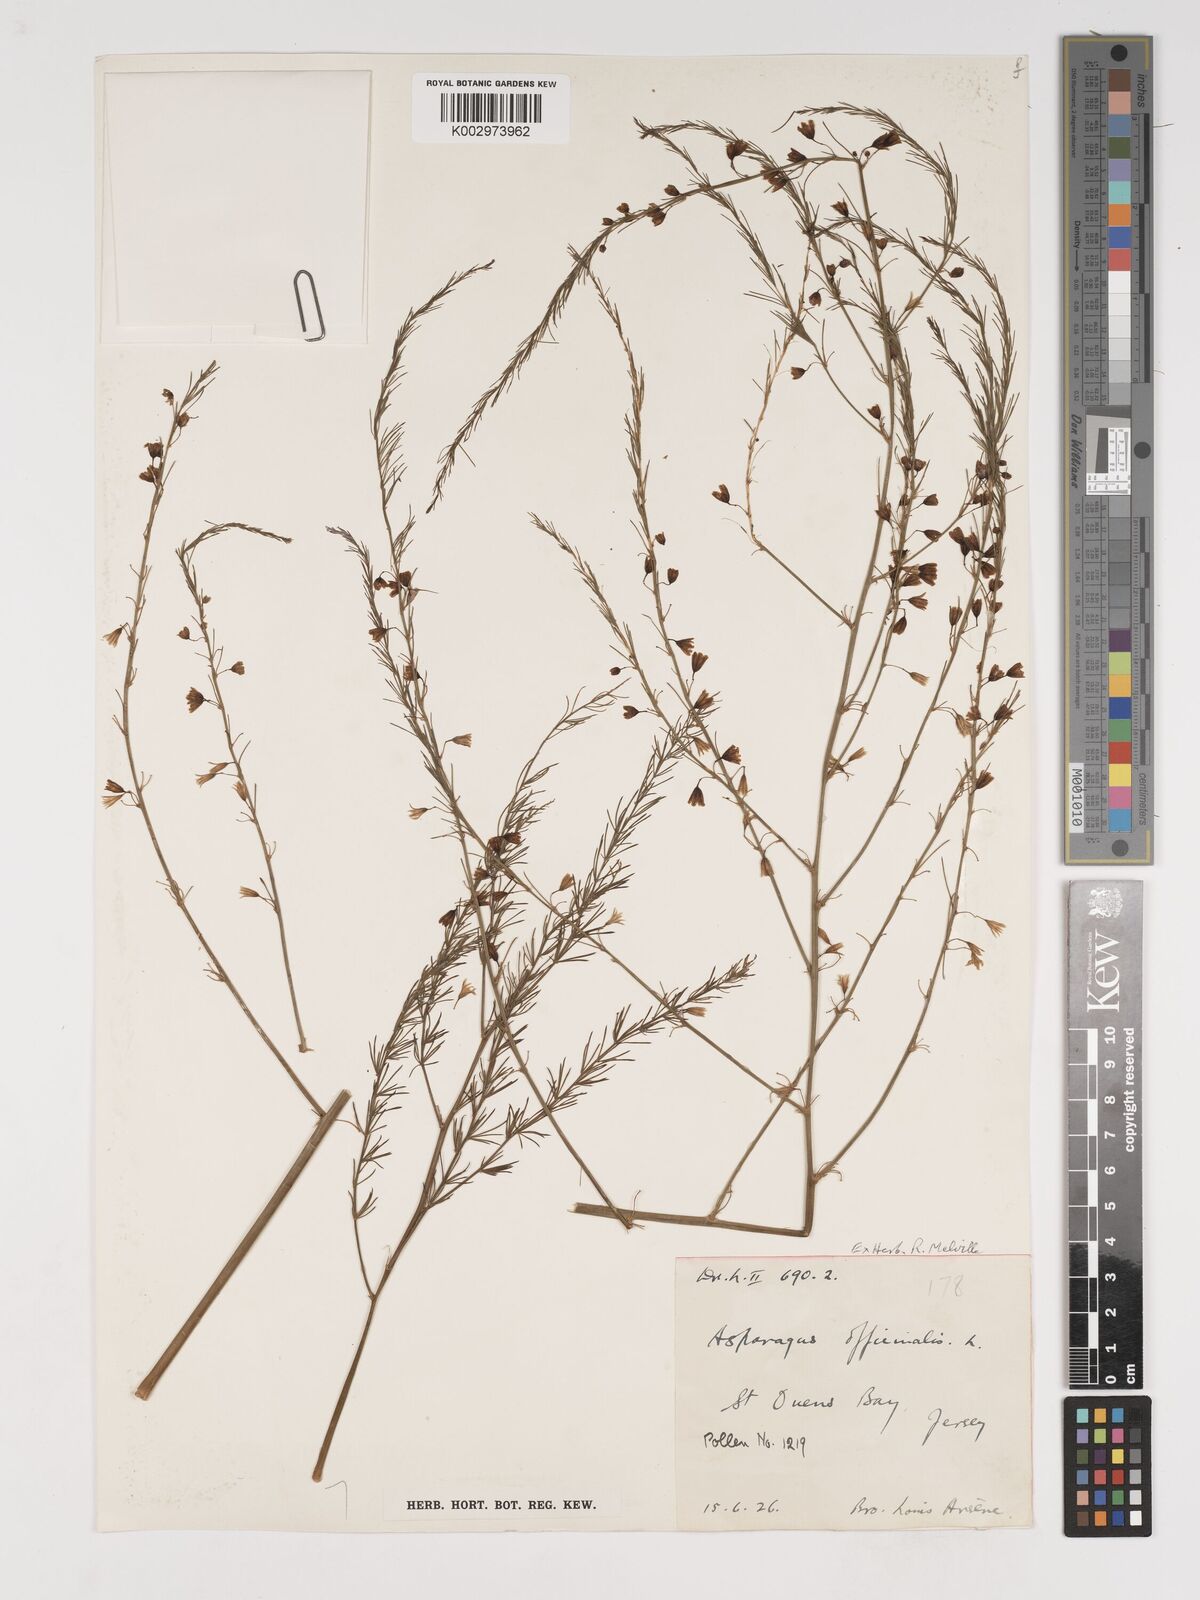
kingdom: Plantae
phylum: Tracheophyta
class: Liliopsida
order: Asparagales
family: Asparagaceae
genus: Asparagus
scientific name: Asparagus officinalis
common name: Garden asparagus
